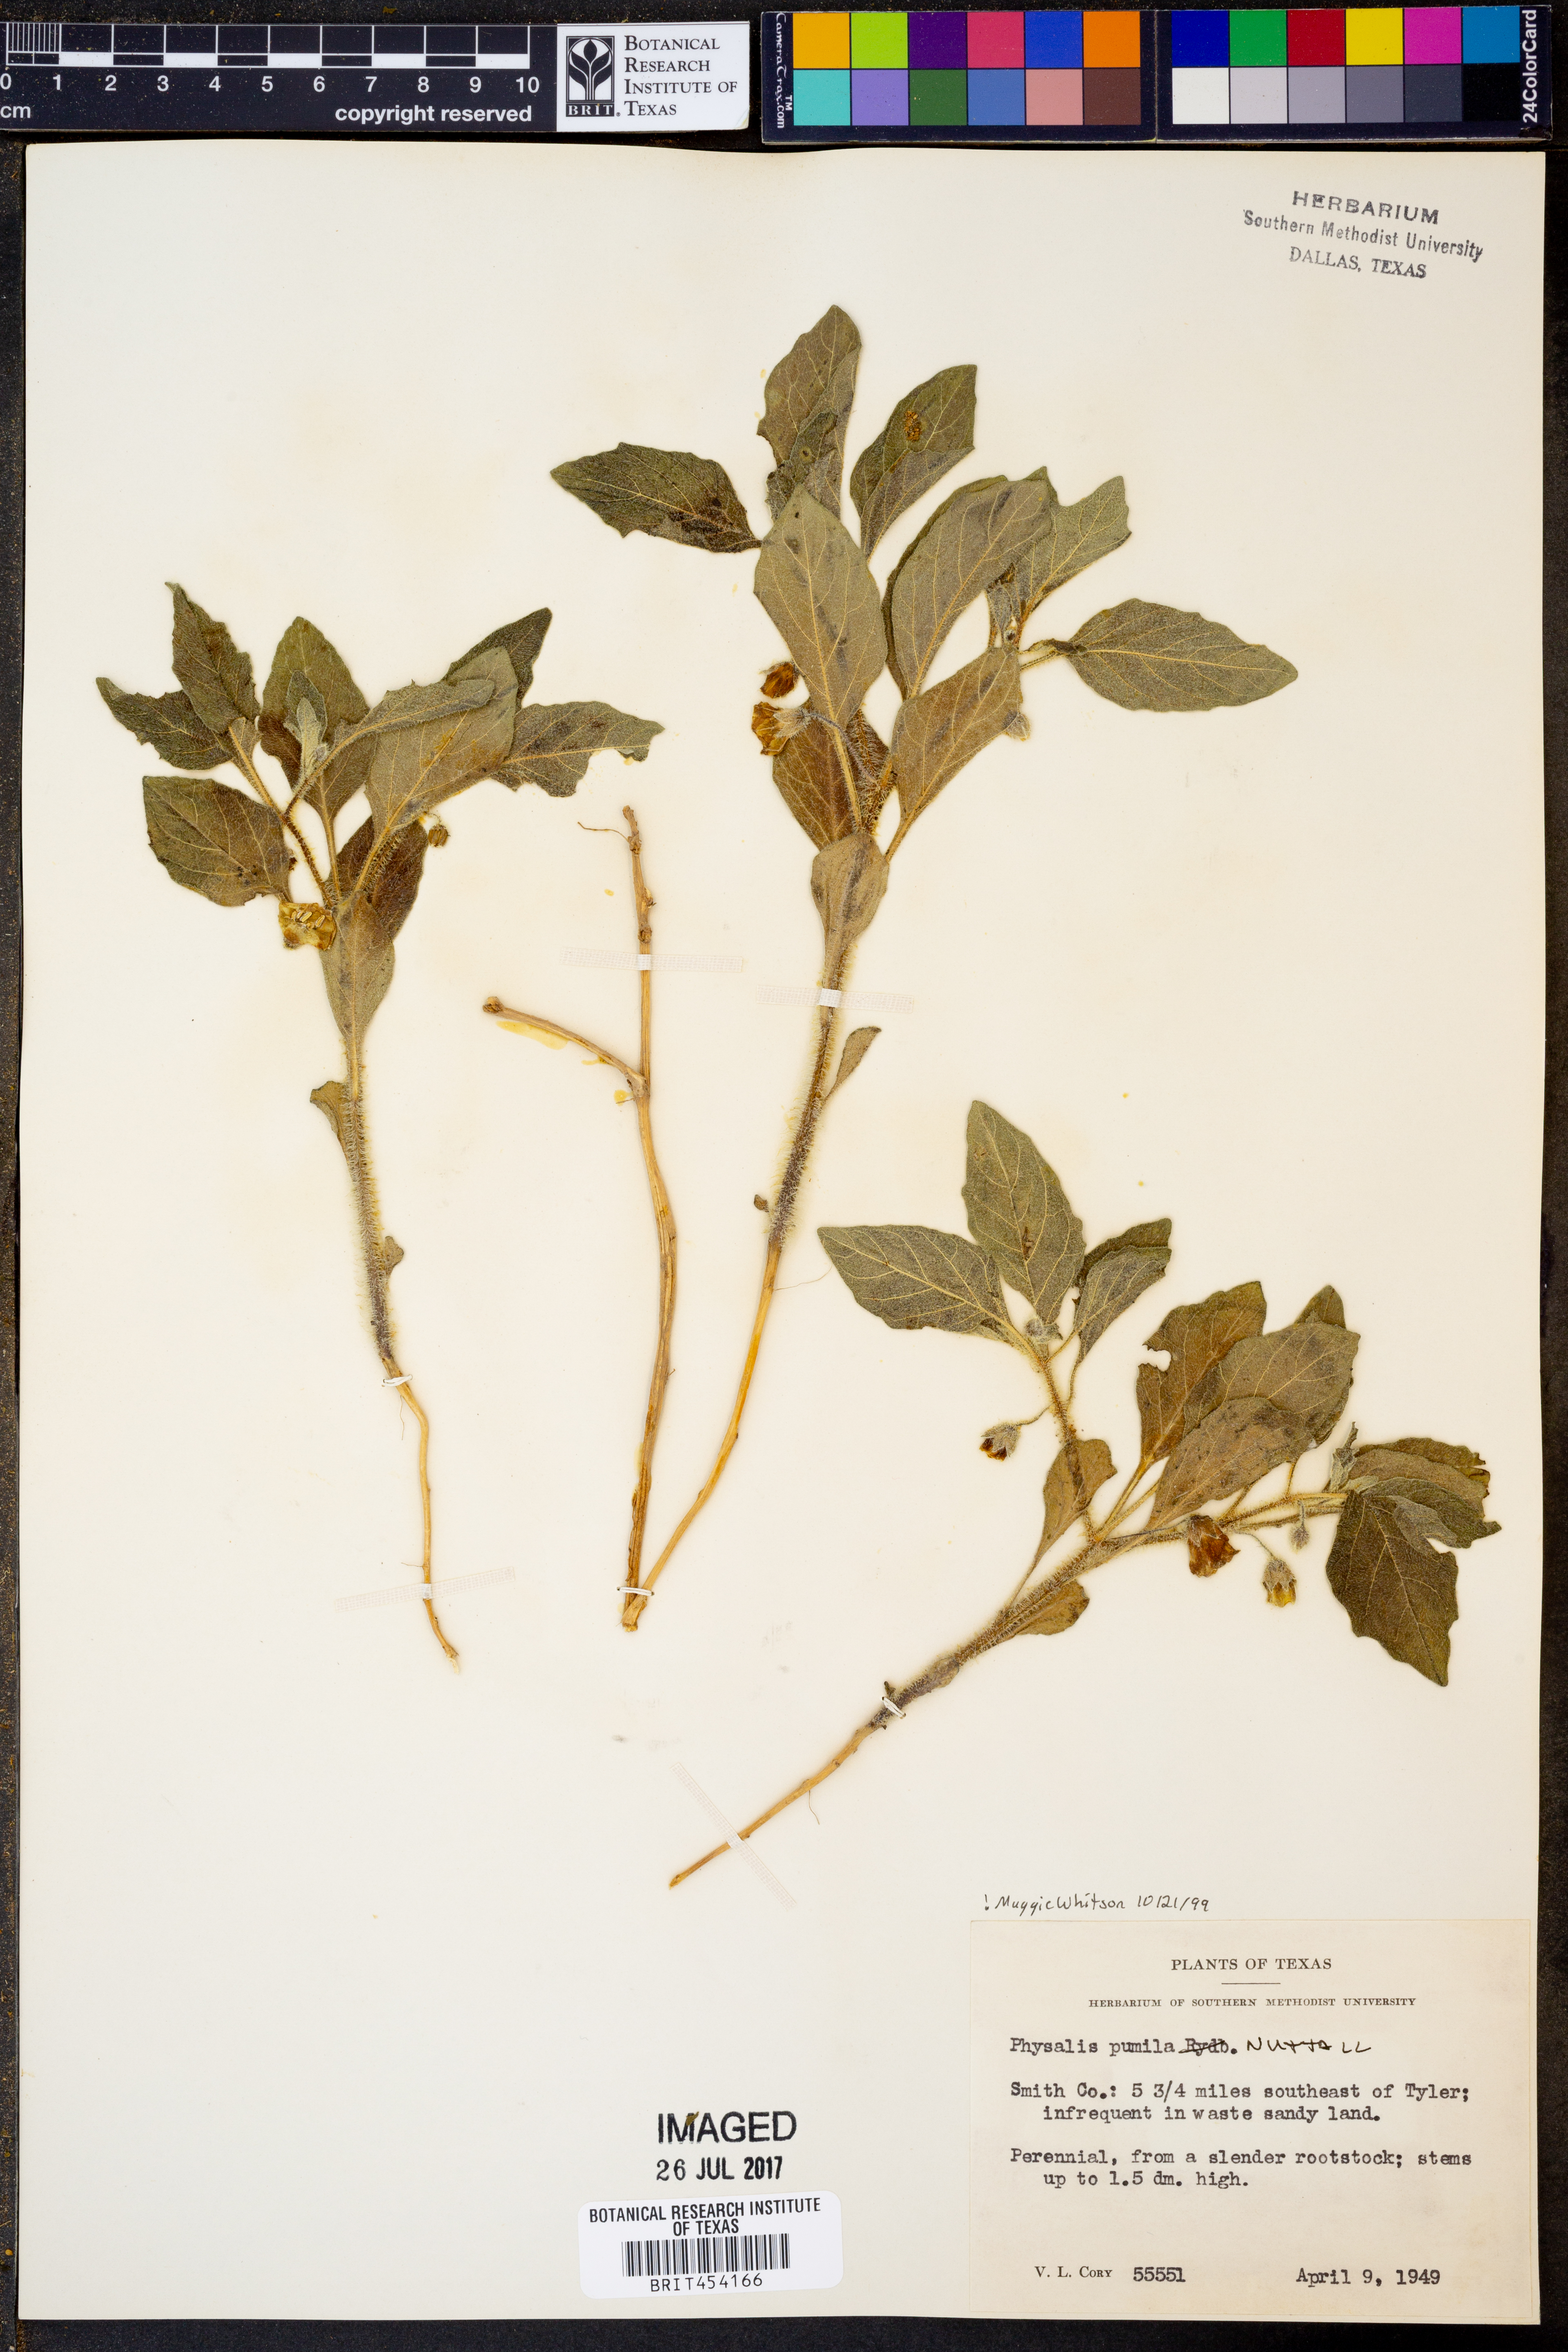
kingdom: Plantae
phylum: Tracheophyta
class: Magnoliopsida
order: Solanales
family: Solanaceae
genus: Physalis
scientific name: Physalis pumila
